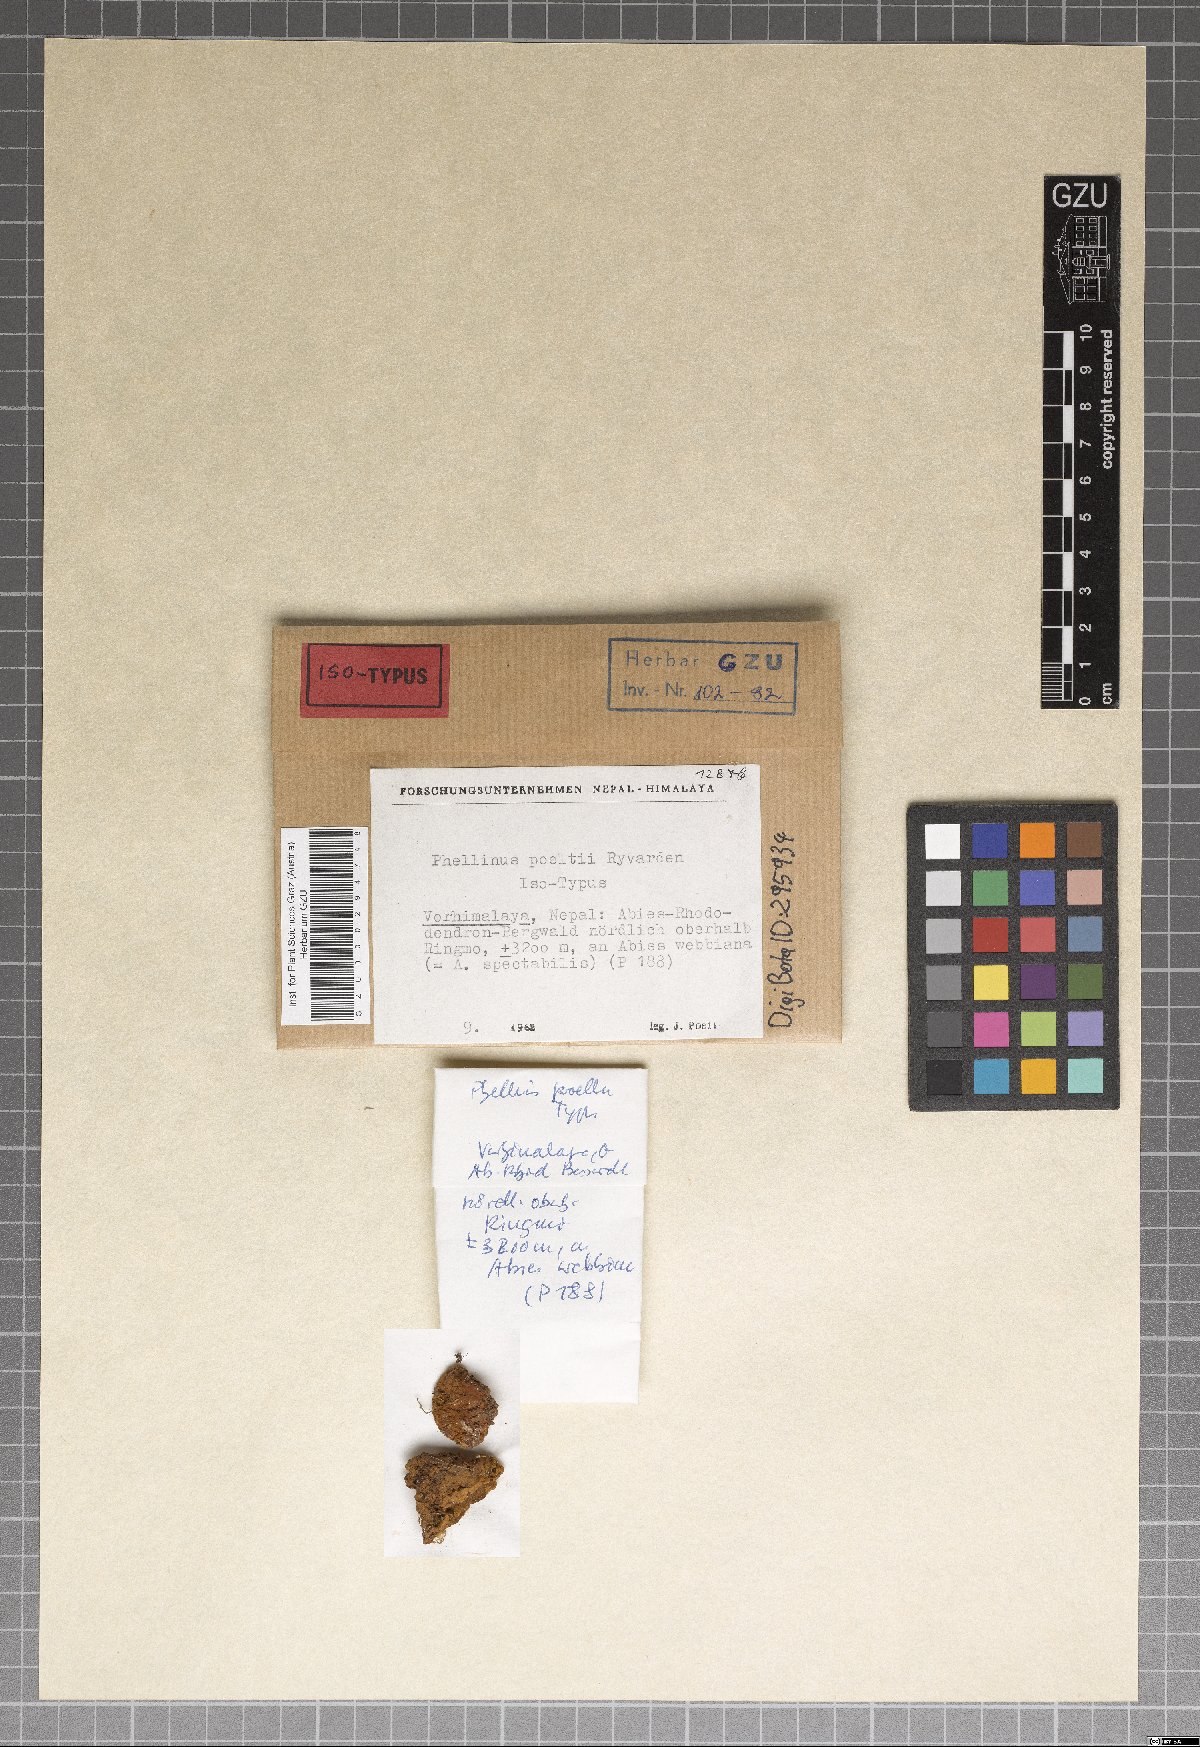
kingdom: Fungi
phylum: Basidiomycota
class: Agaricomycetes
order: Hymenochaetales
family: Hymenochaetaceae
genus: Tropicoporus
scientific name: Tropicoporus poeltii
